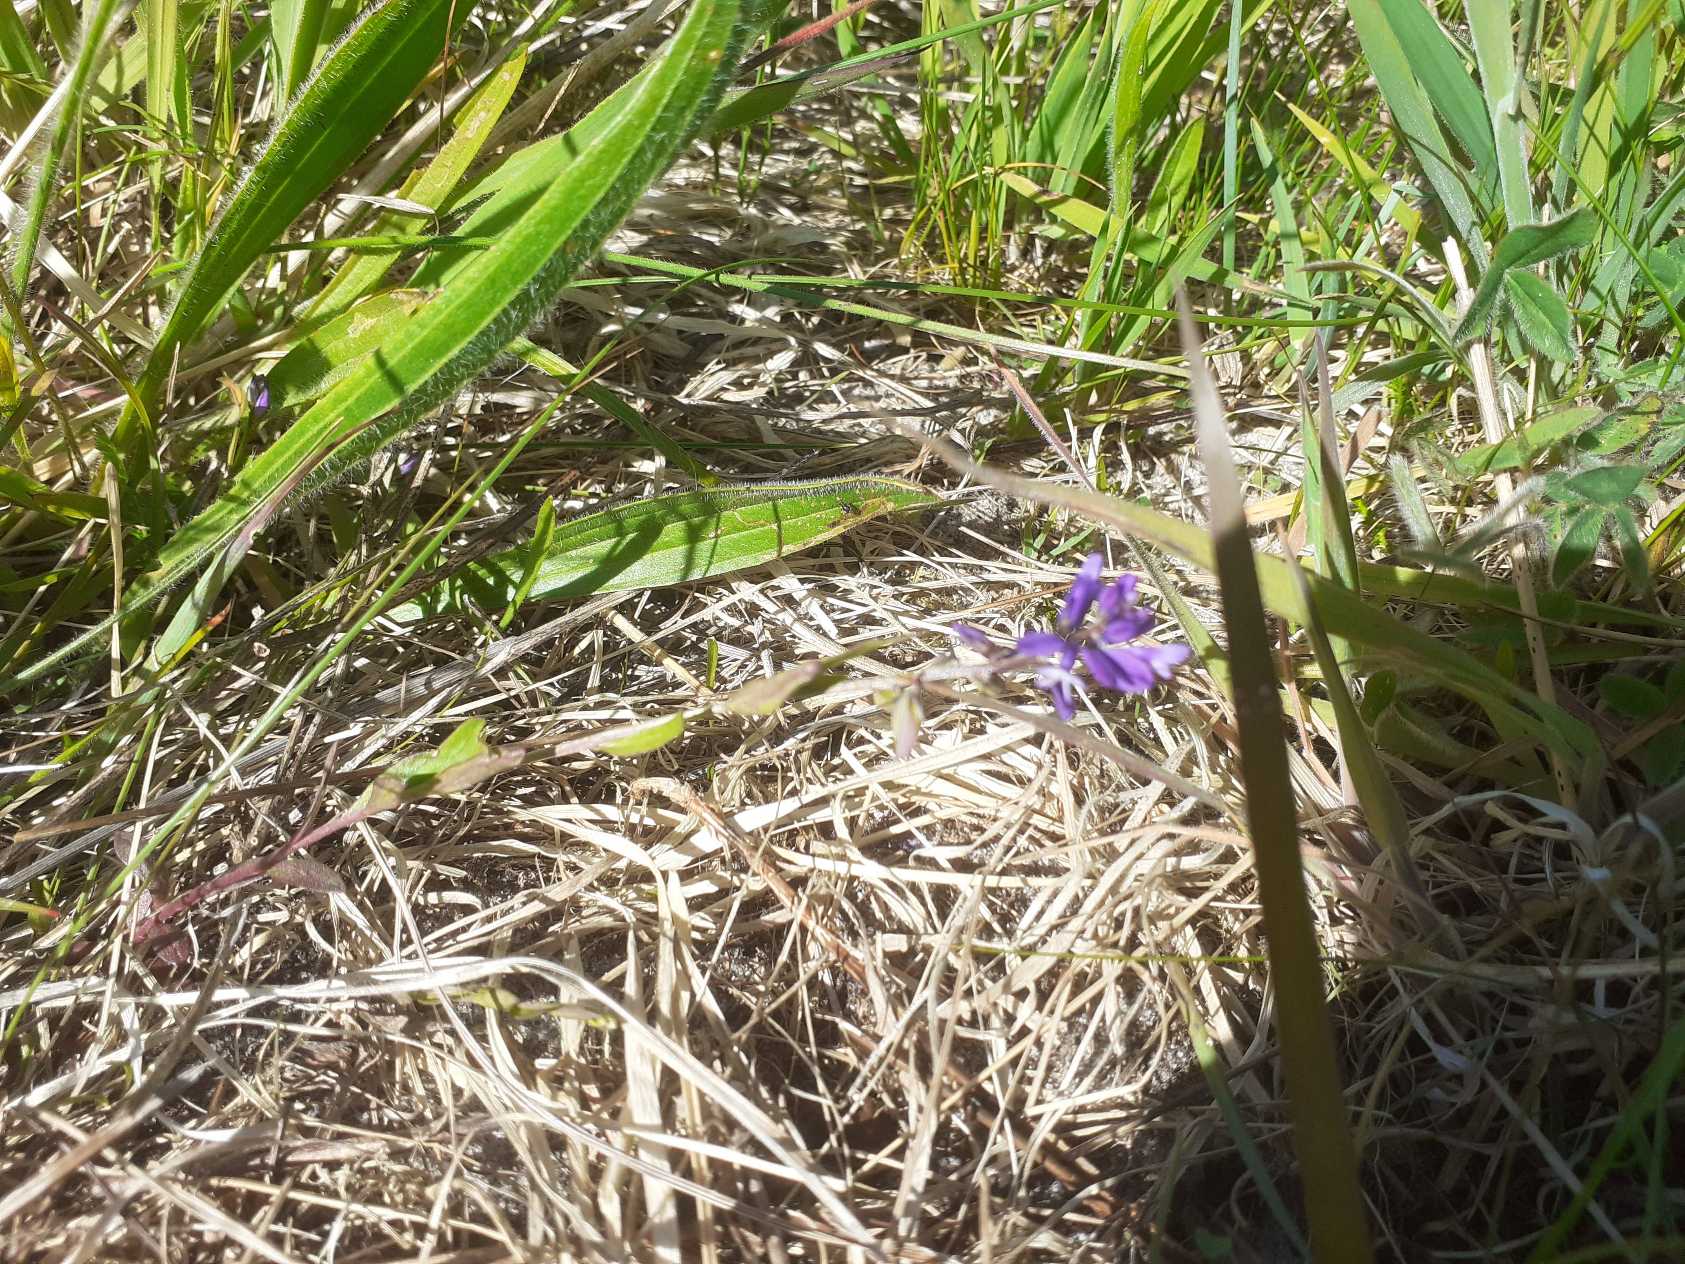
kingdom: Plantae
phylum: Tracheophyta
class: Magnoliopsida
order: Fabales
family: Polygalaceae
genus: Polygala
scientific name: Polygala vulgaris
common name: Almindelig mælkeurt
